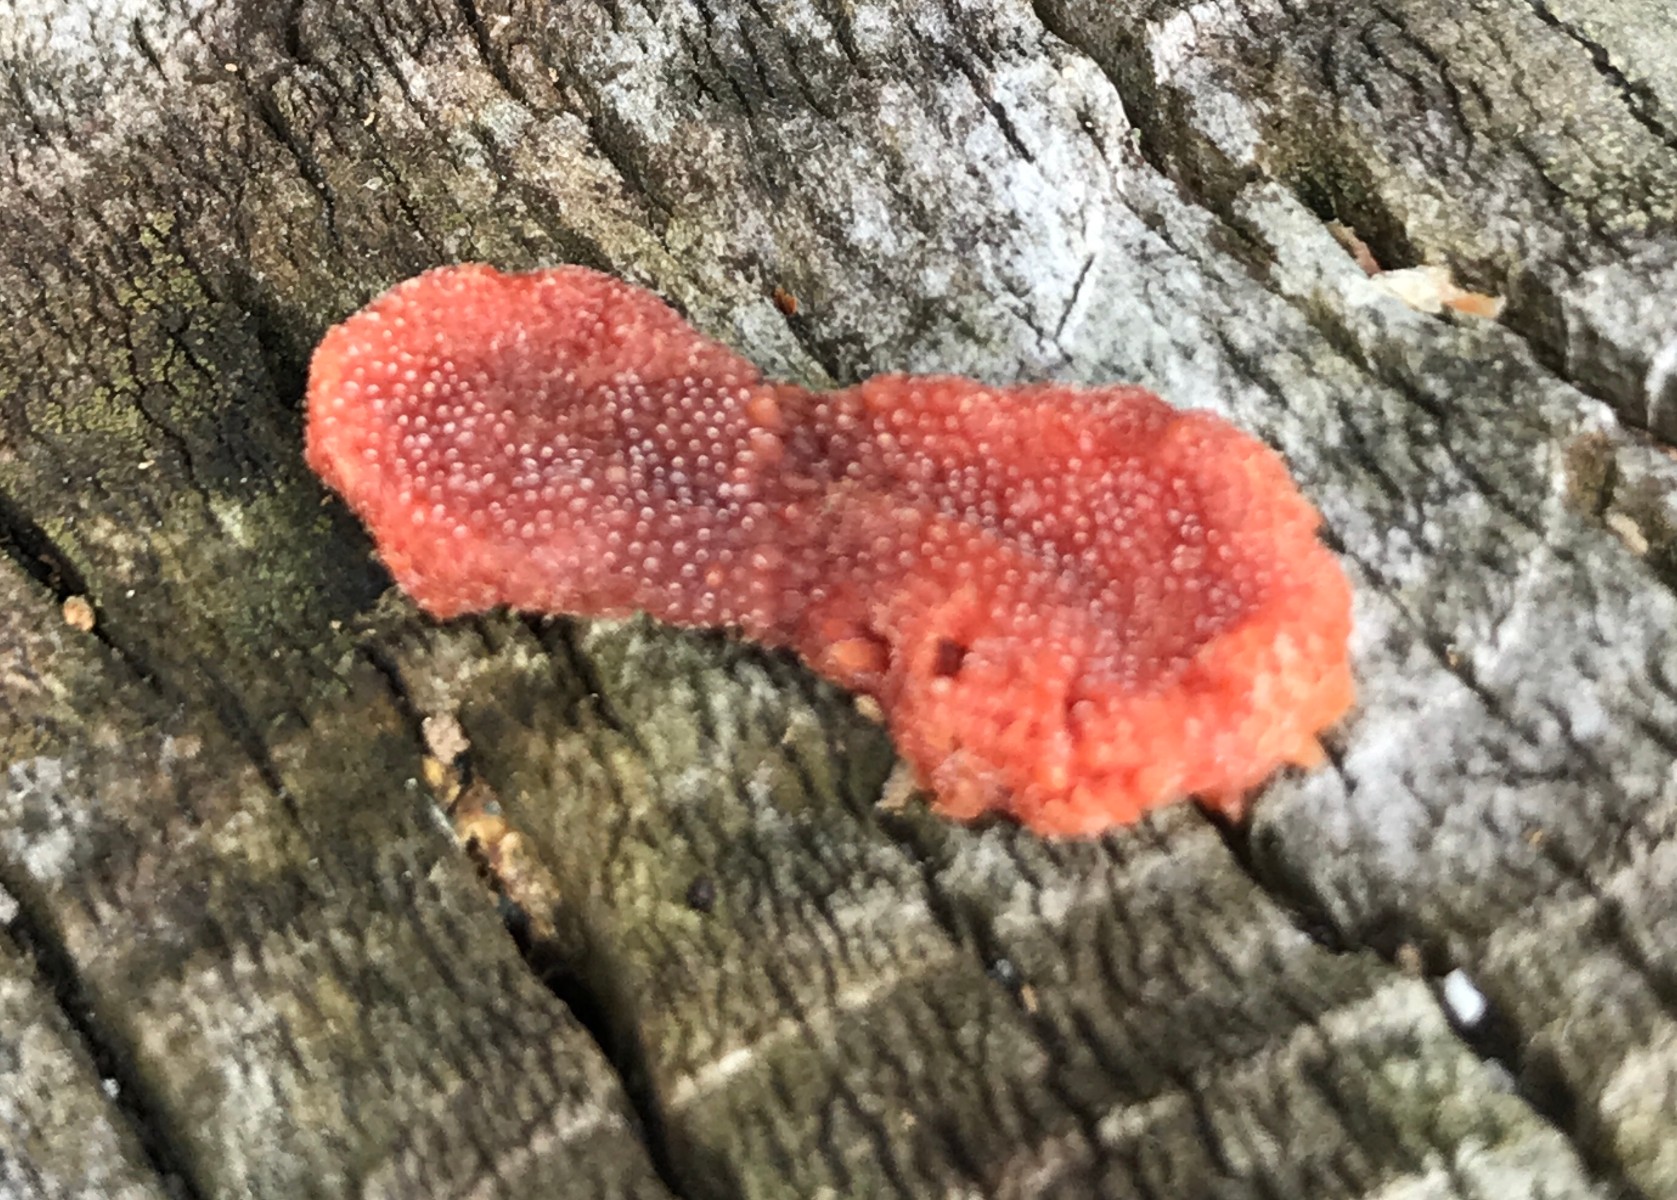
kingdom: Protozoa
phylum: Mycetozoa
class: Myxomycetes
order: Cribrariales
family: Tubiferaceae
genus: Tubifera
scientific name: Tubifera ferruginosa
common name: kanel-støvrør
